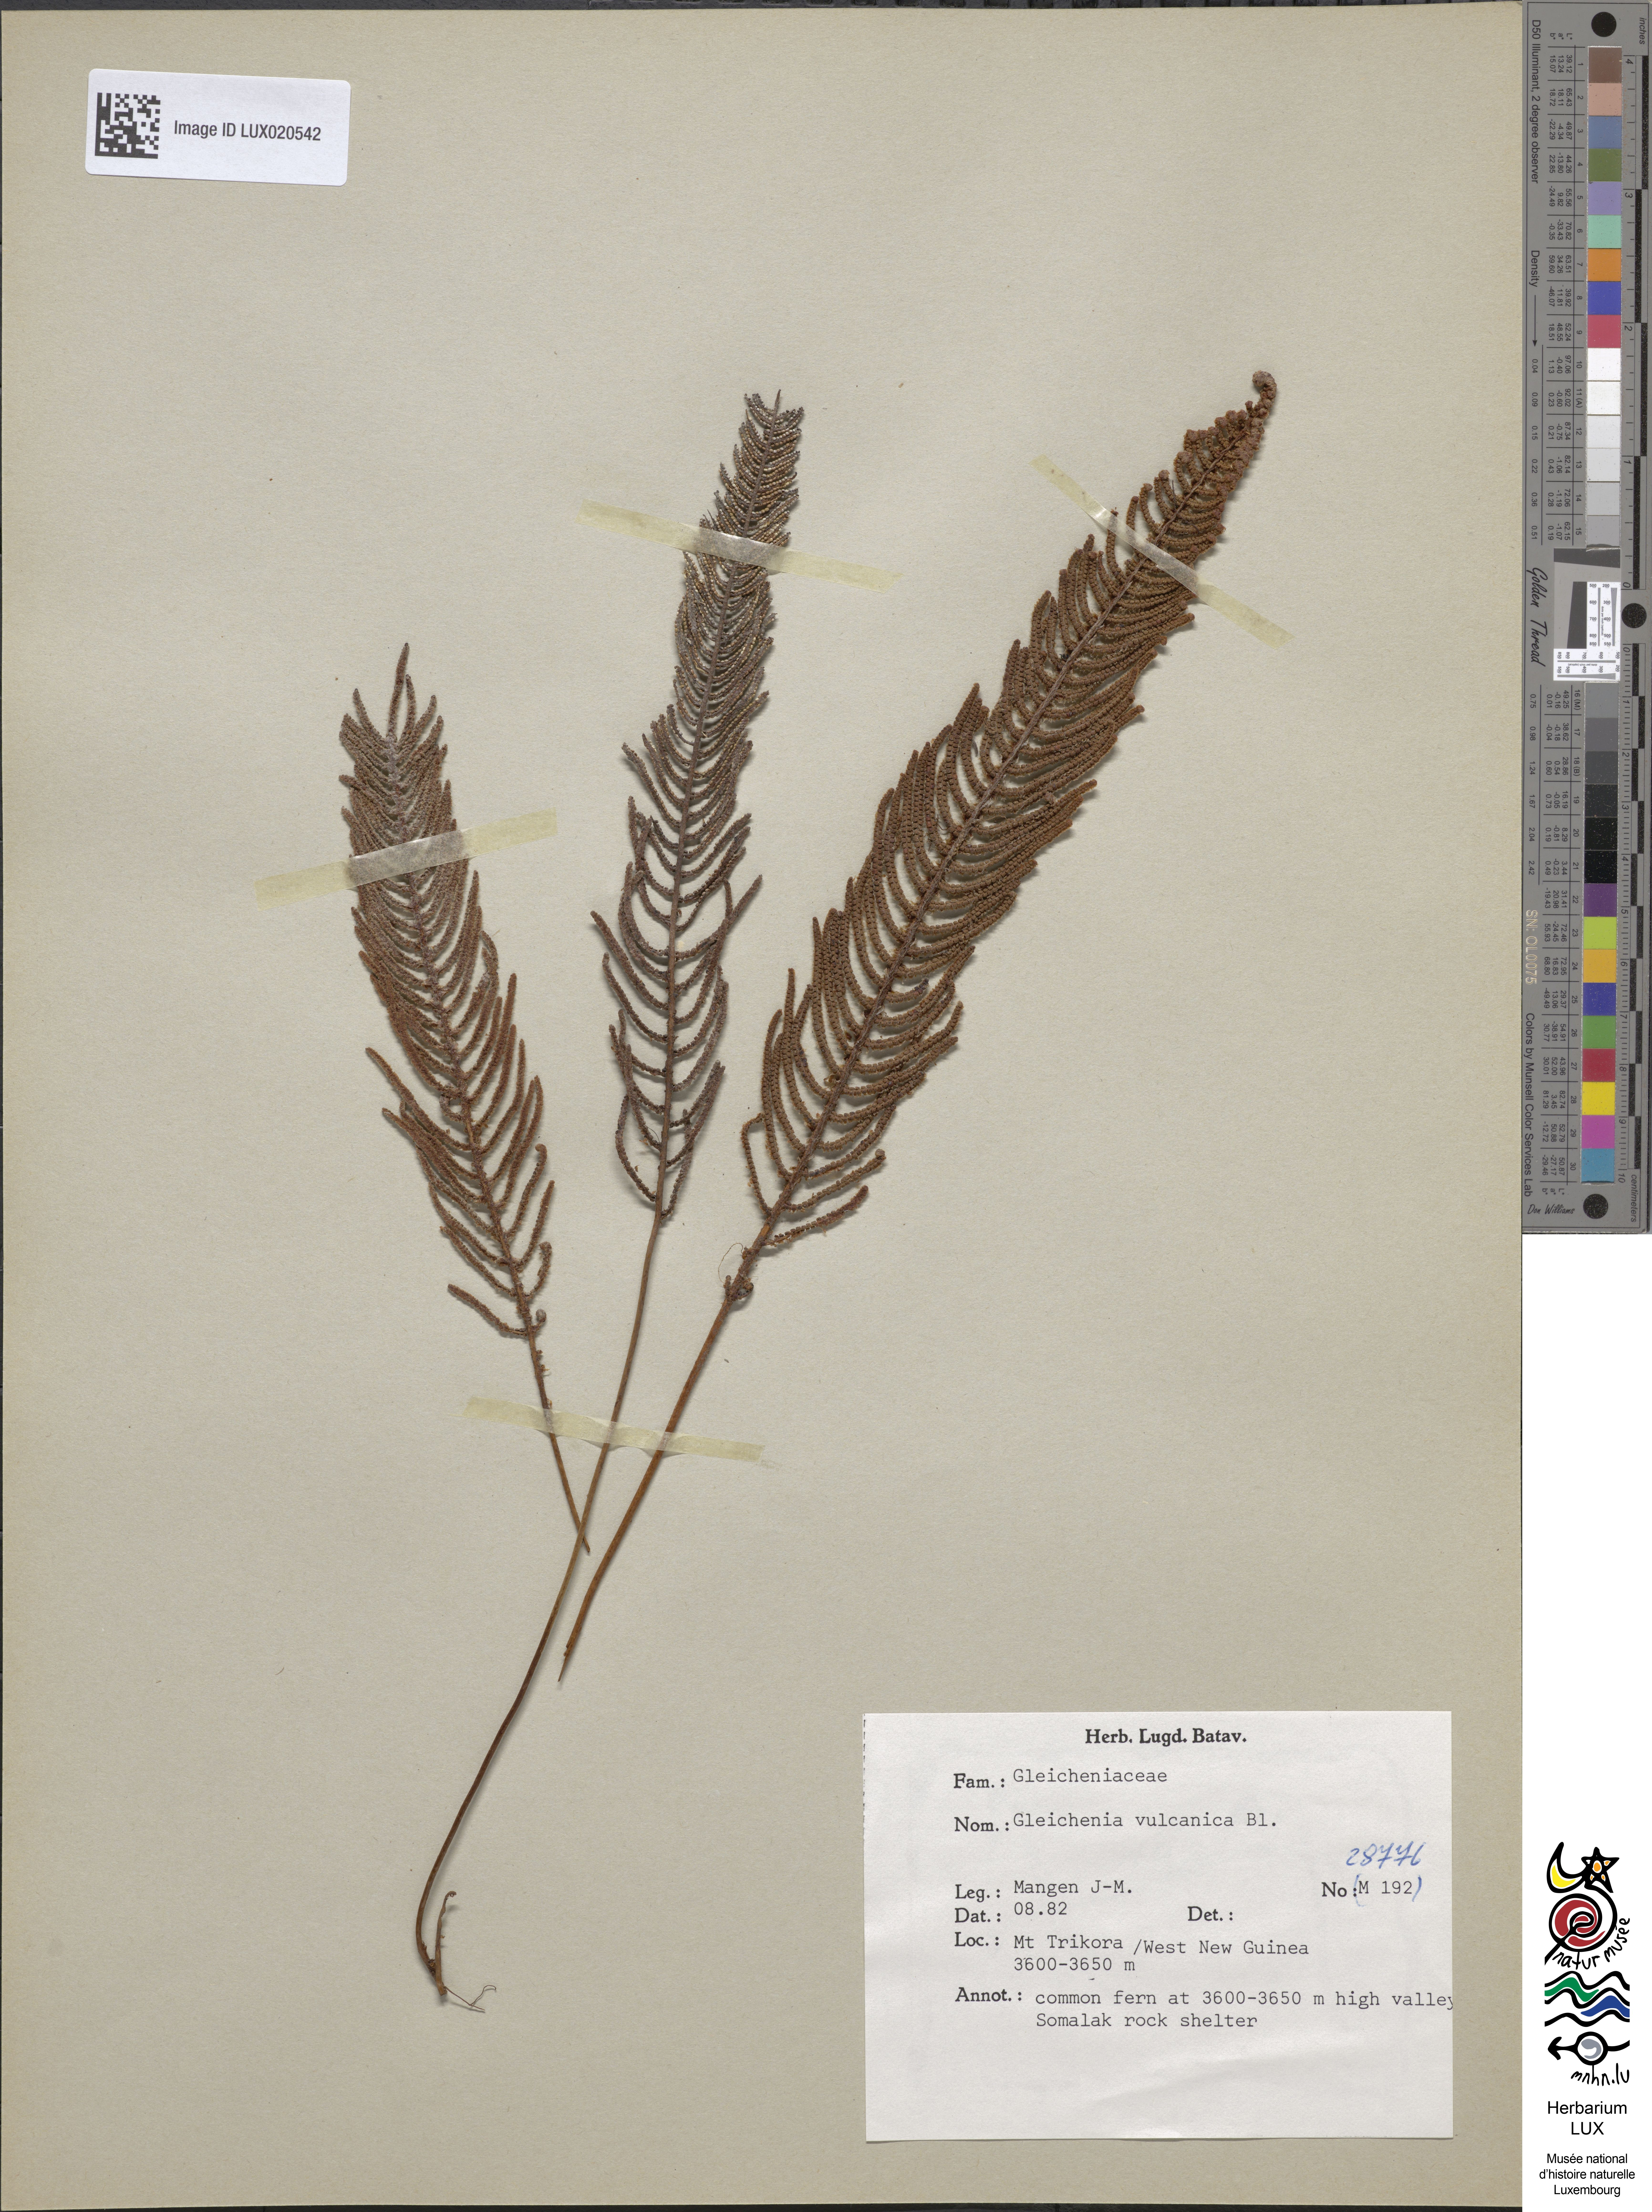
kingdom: Plantae
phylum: Tracheophyta
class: Polypodiopsida
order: Gleicheniales
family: Gleicheniaceae
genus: Gleichenia
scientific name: Gleichenia vulcanica
